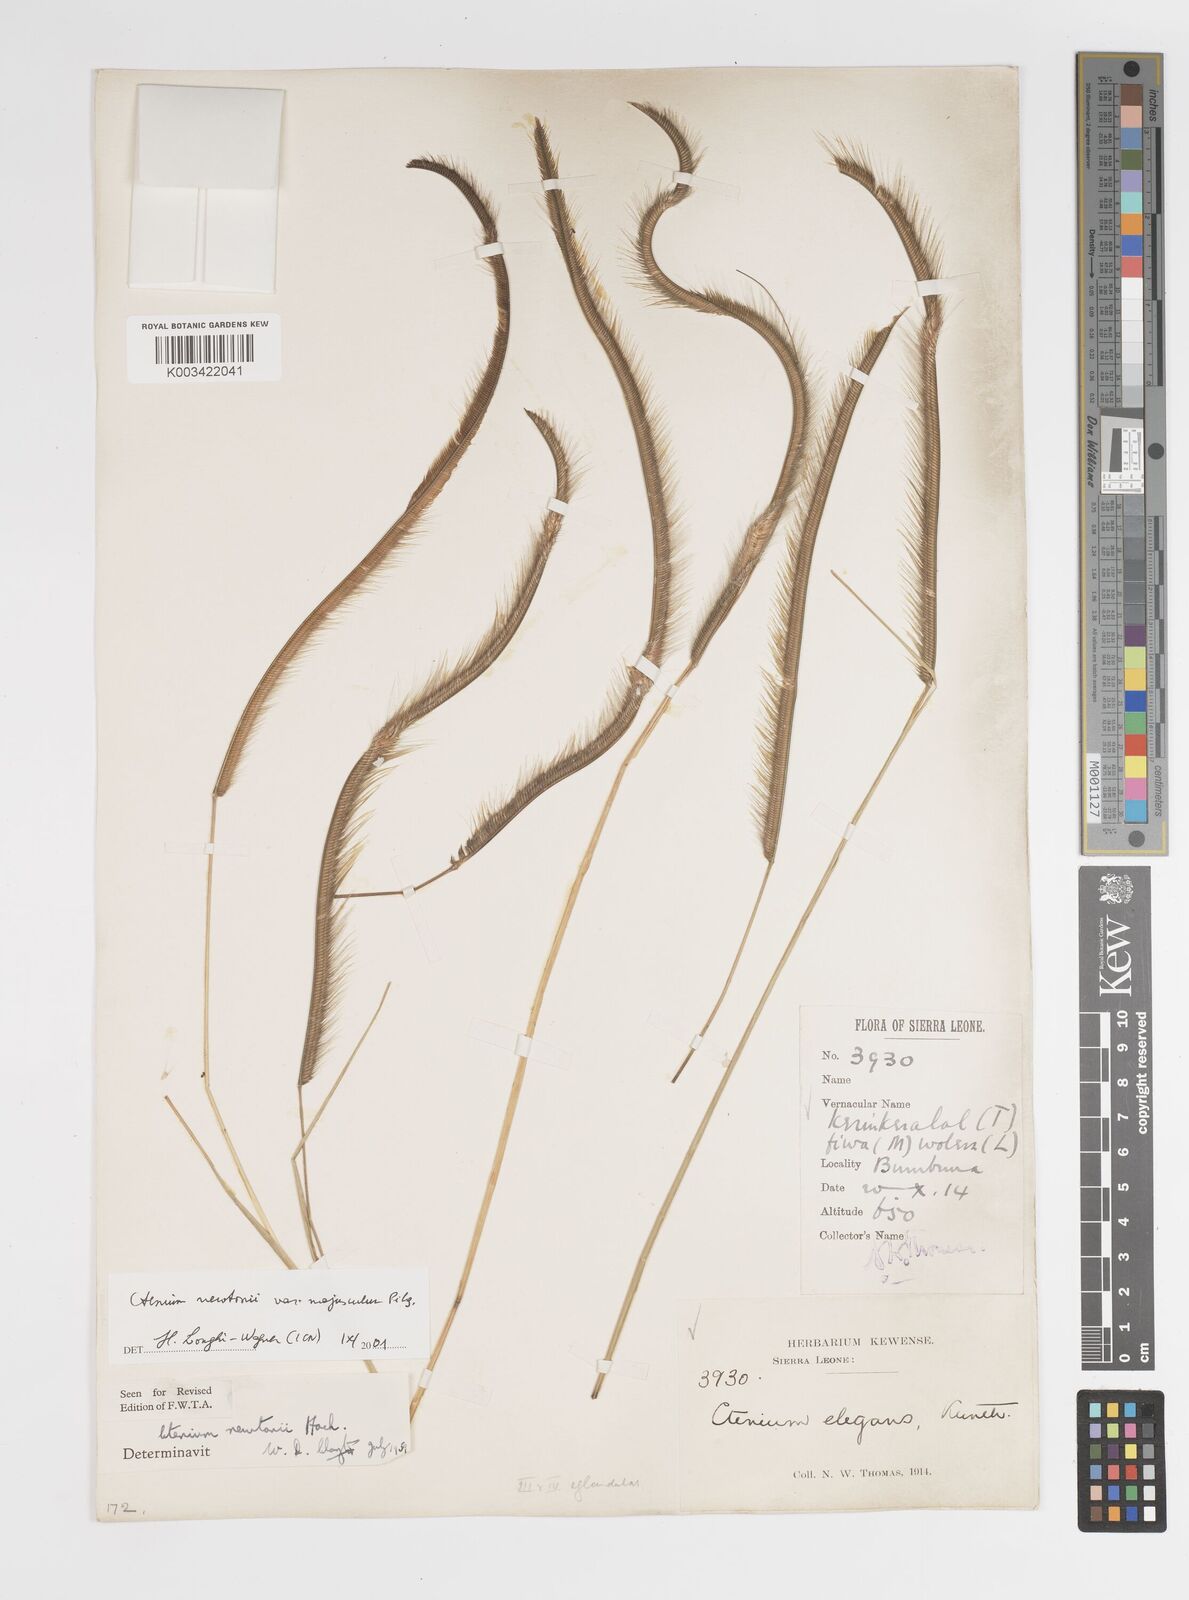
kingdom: Plantae
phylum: Tracheophyta
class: Liliopsida
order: Poales
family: Poaceae
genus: Ctenium
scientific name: Ctenium newtonii
